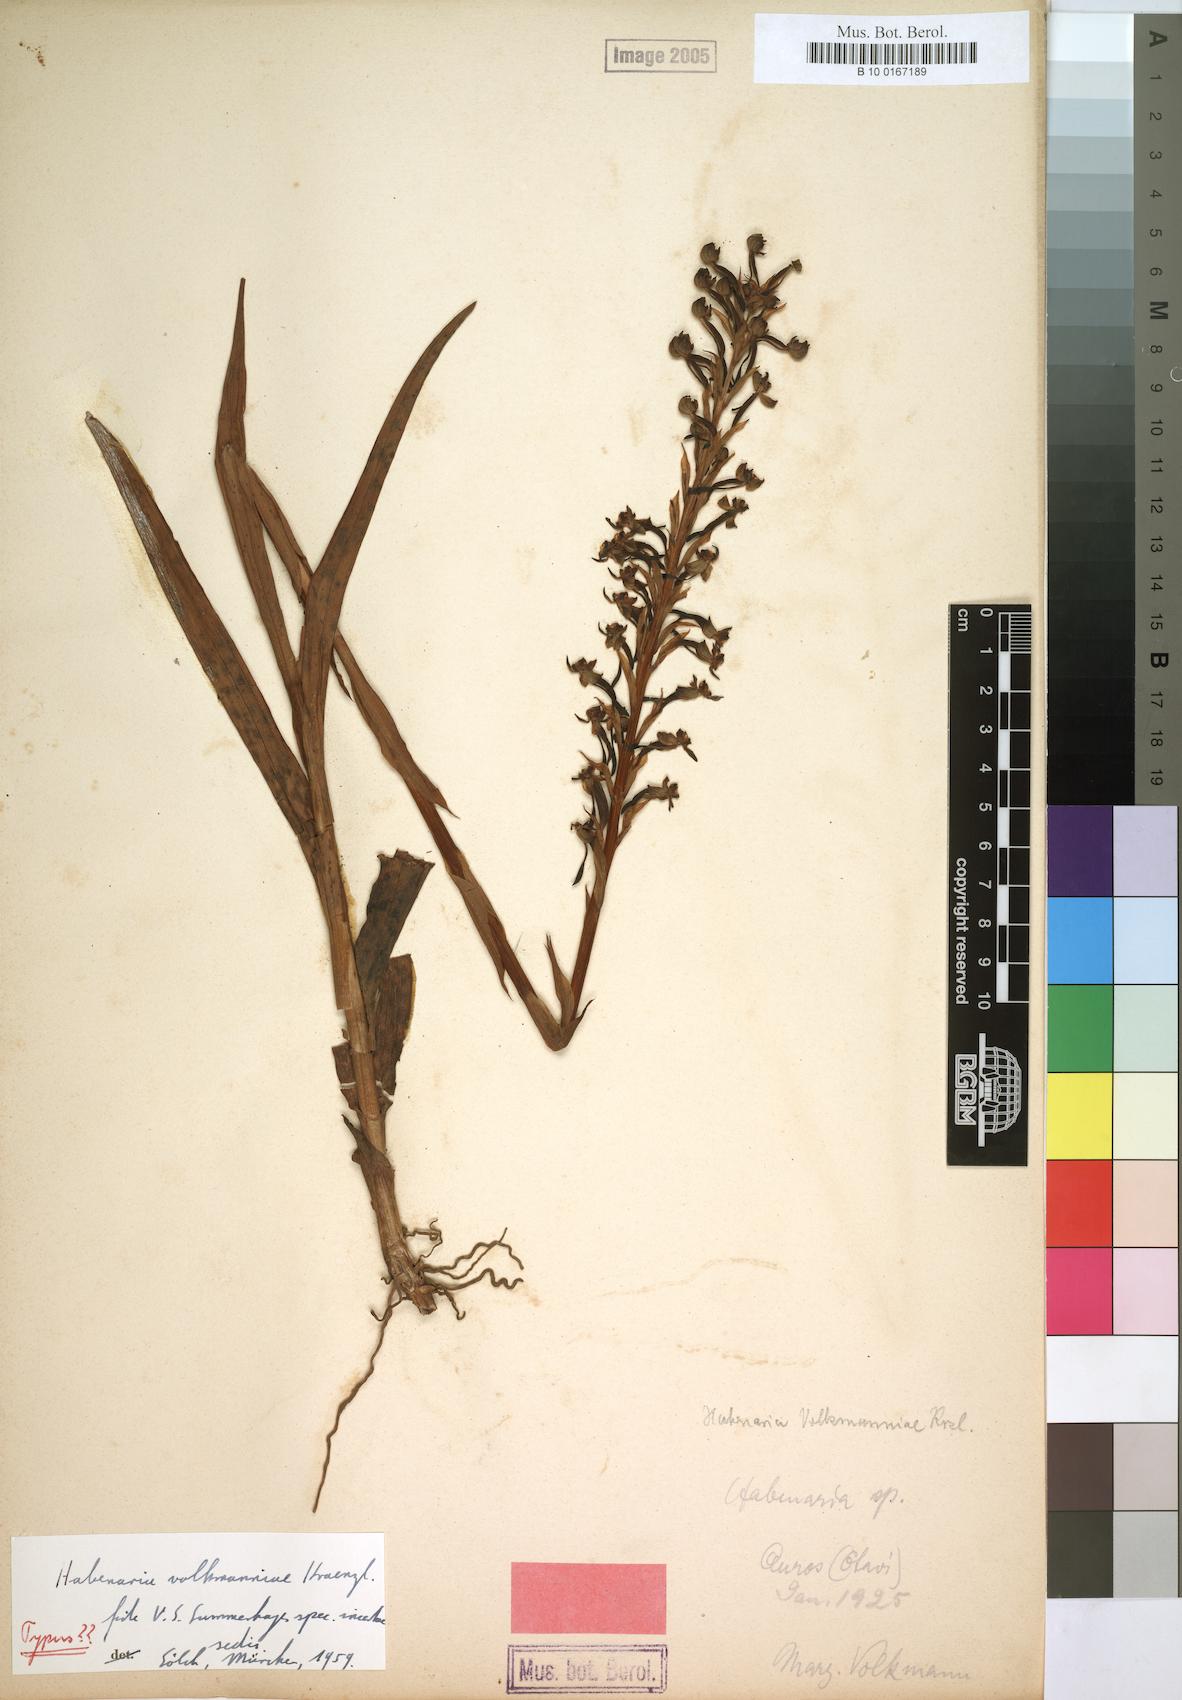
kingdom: Plantae
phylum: Tracheophyta
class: Liliopsida
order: Asparagales
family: Orchidaceae
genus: Habenaria
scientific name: Habenaria volkmanniae
